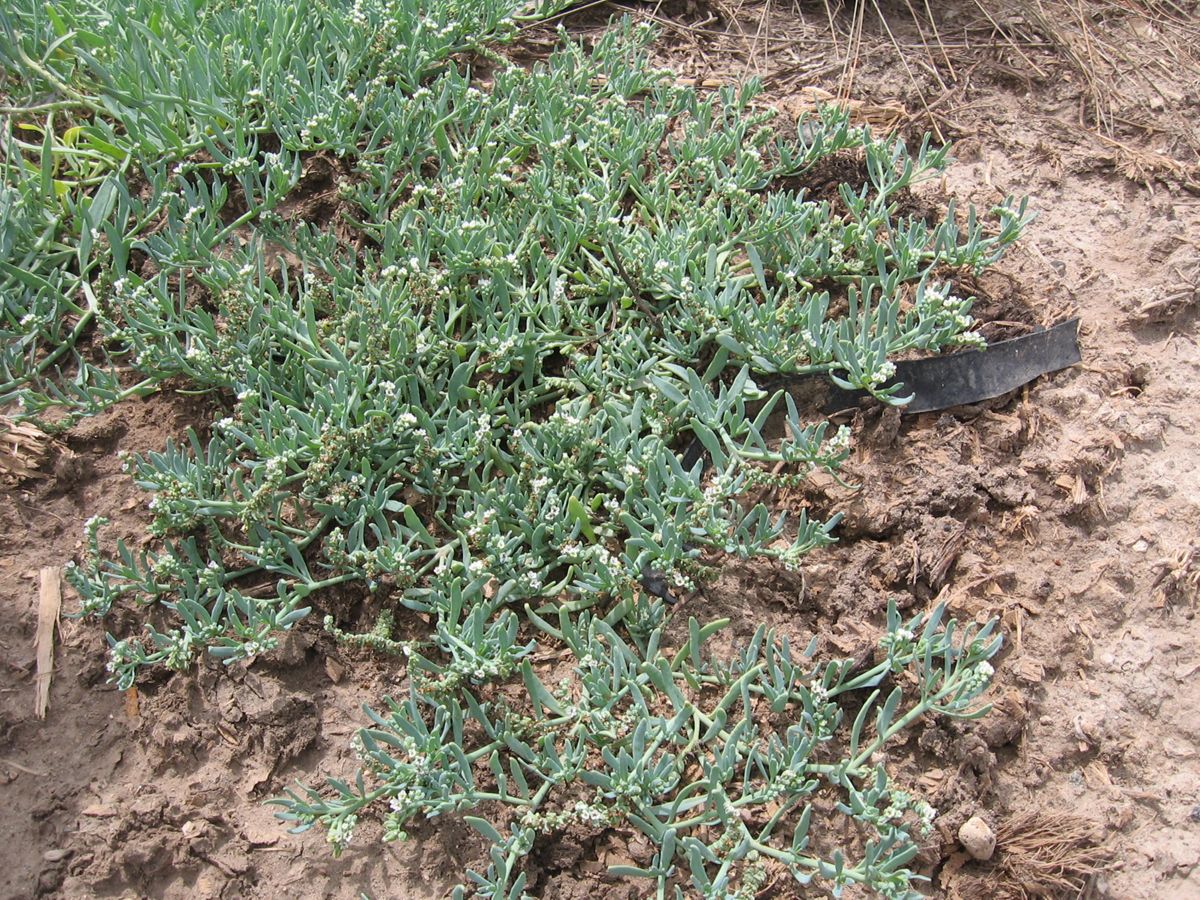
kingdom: Plantae
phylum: Tracheophyta
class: Magnoliopsida
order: Boraginales
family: Heliotropiaceae
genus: Heliotropium
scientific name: Heliotropium curassavicum
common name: Seaside heliotrope
